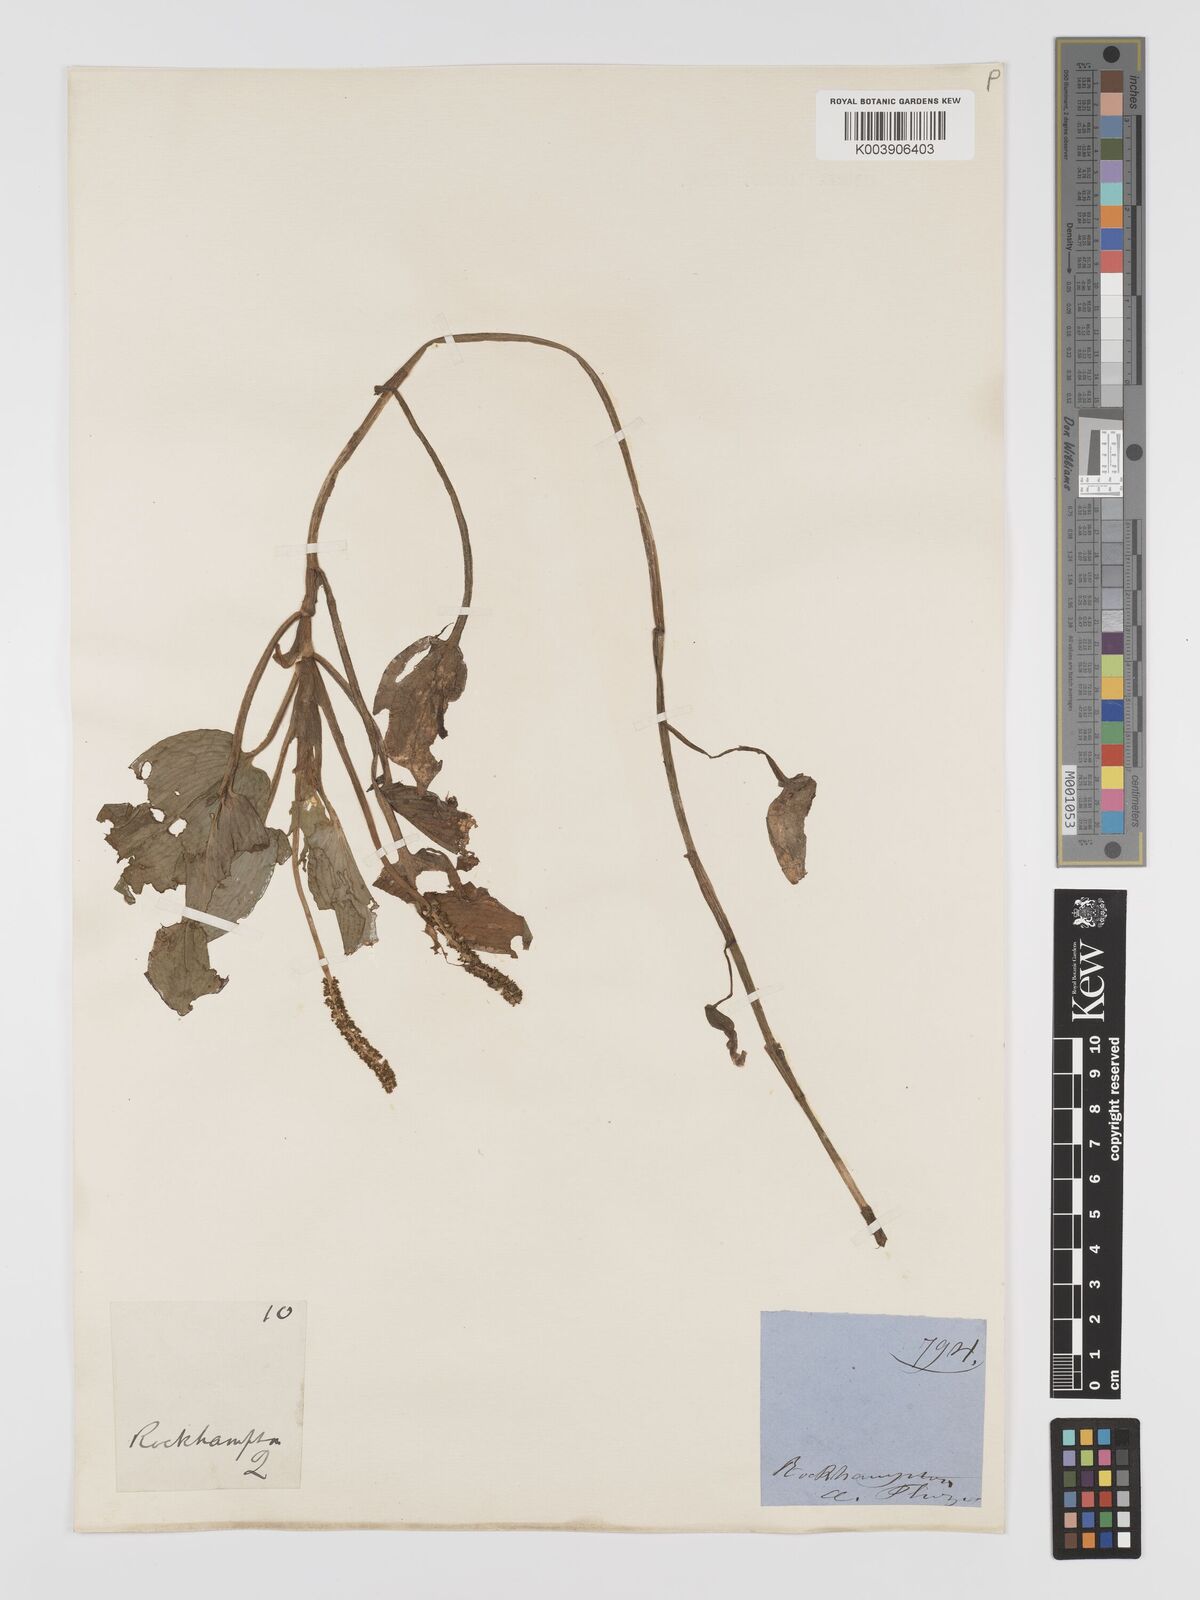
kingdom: Plantae
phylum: Tracheophyta
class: Liliopsida
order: Alismatales
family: Potamogetonaceae
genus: Potamogeton
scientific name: Potamogeton tricarinatus
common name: Pondweed
